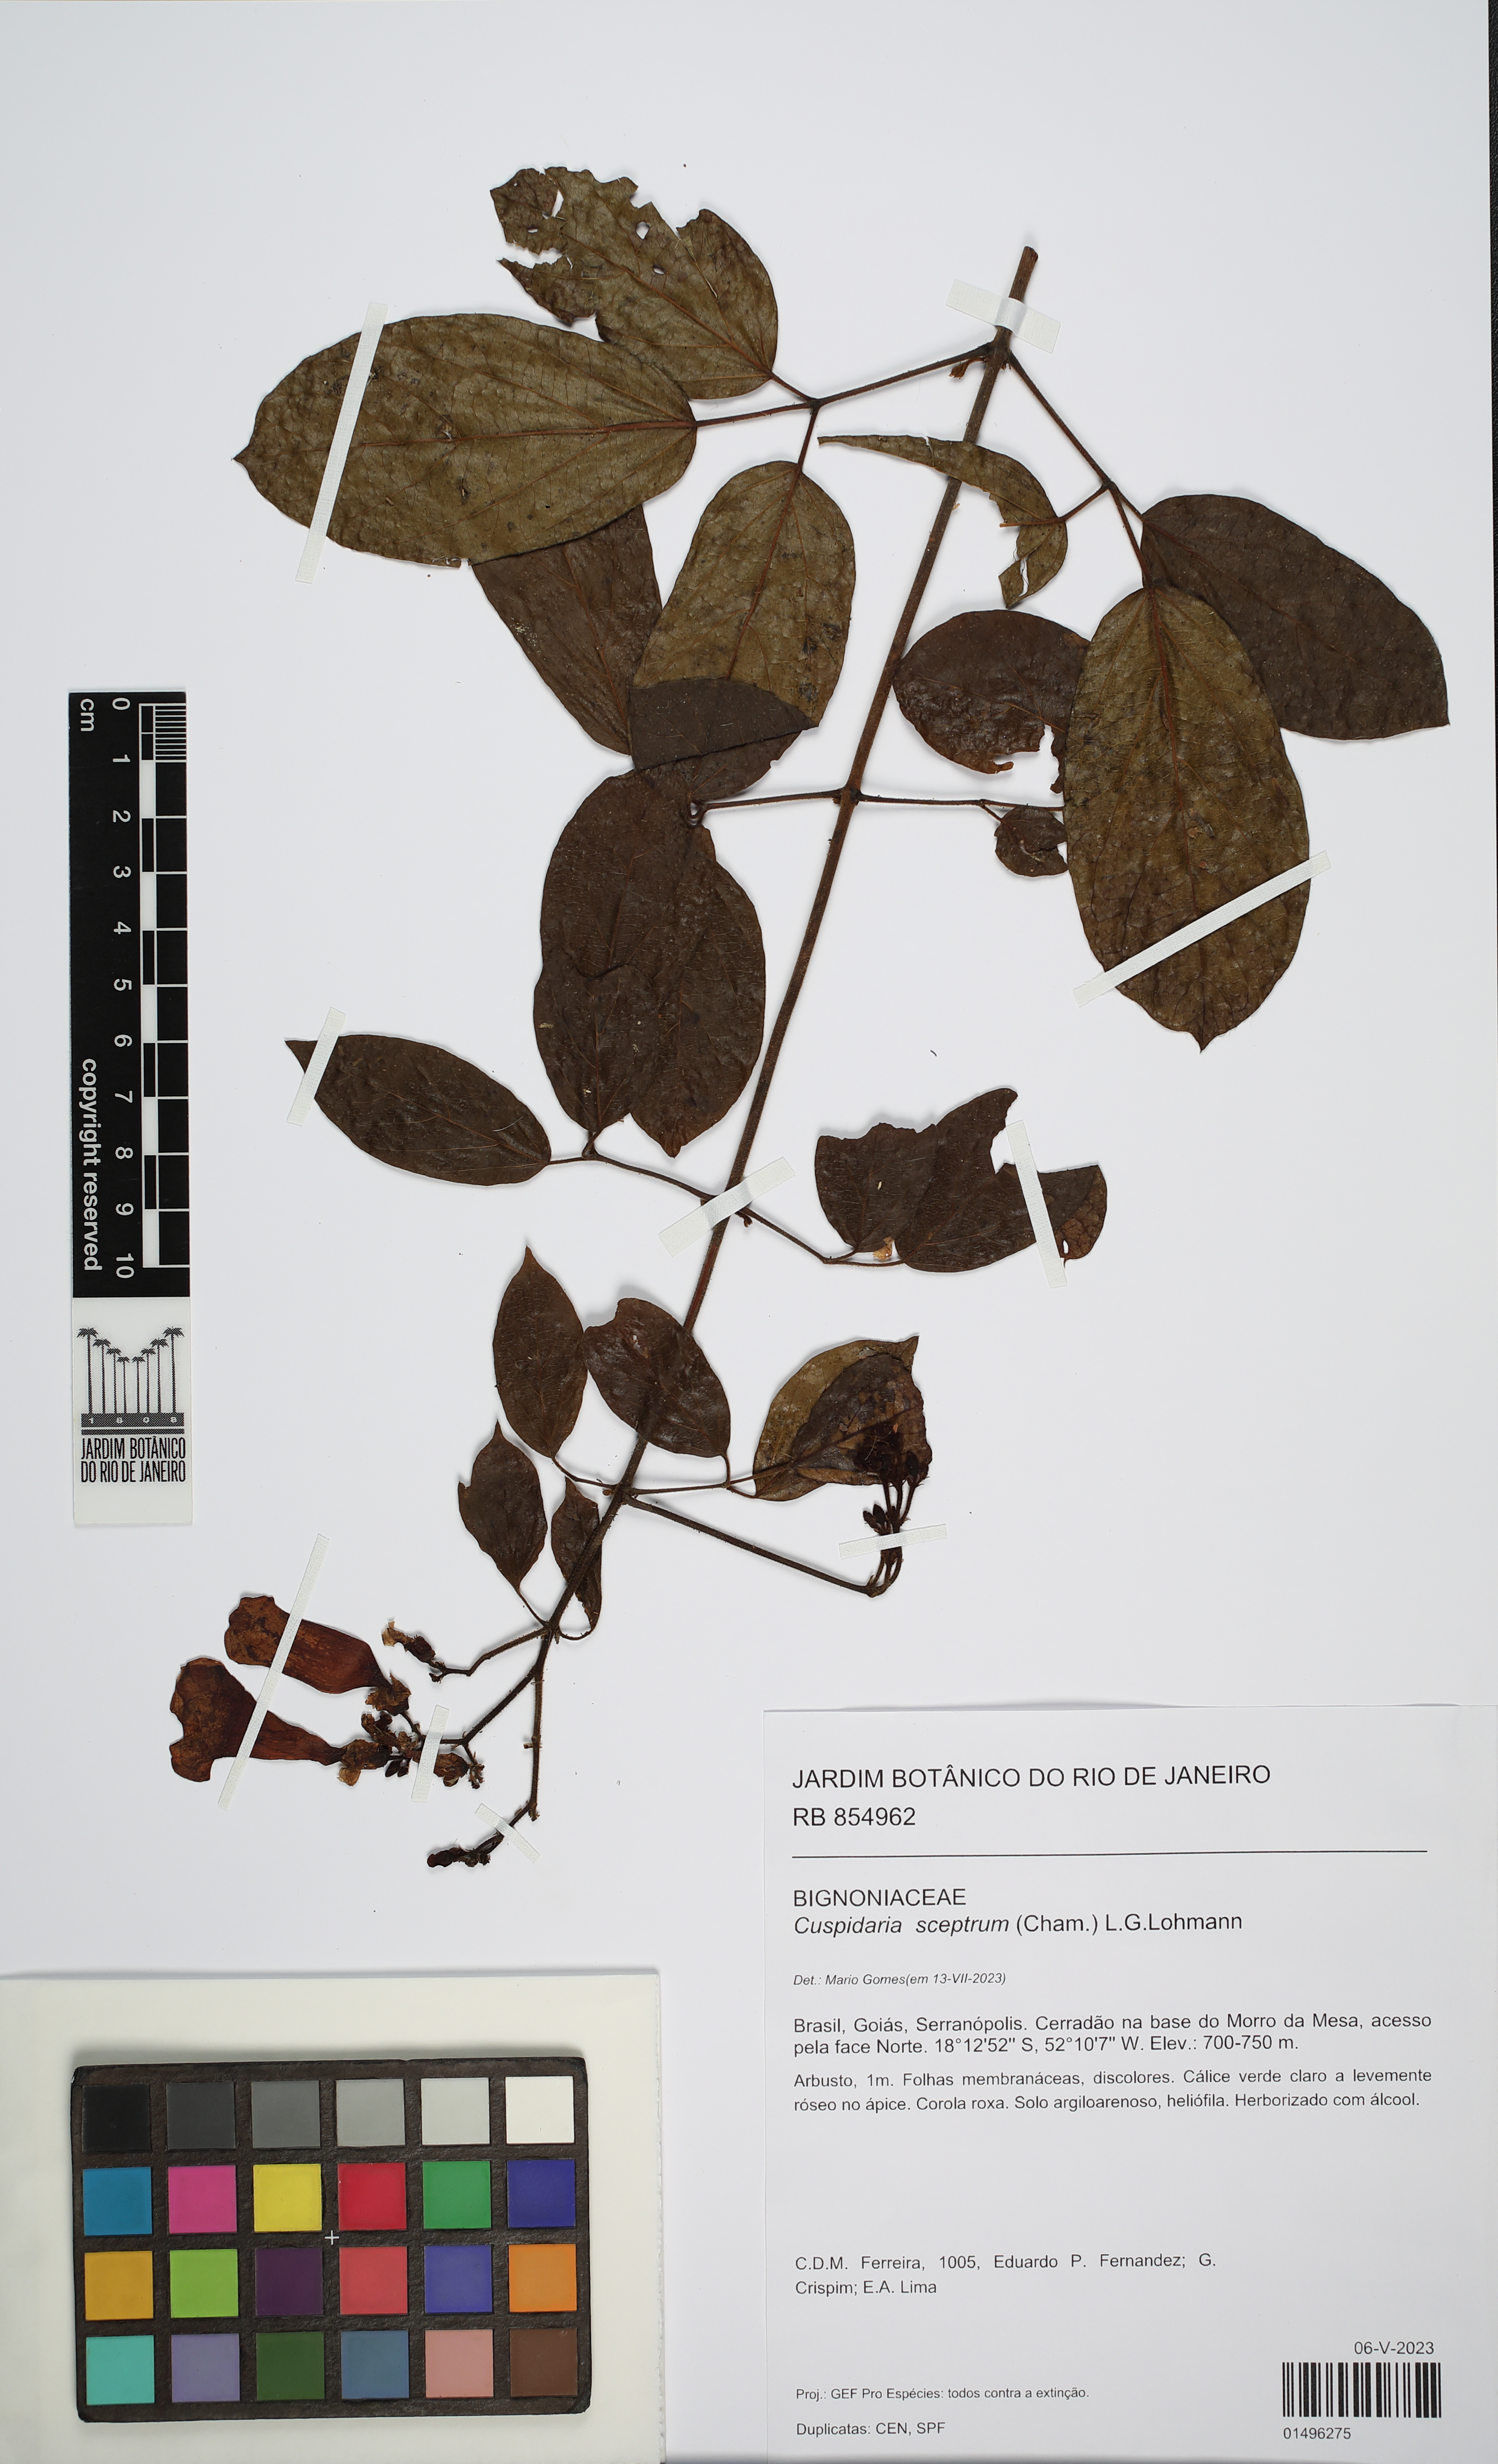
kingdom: Plantae
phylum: Tracheophyta
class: Magnoliopsida
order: Lamiales
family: Bignoniaceae
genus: Cuspidaria
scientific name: Cuspidaria pulchra
